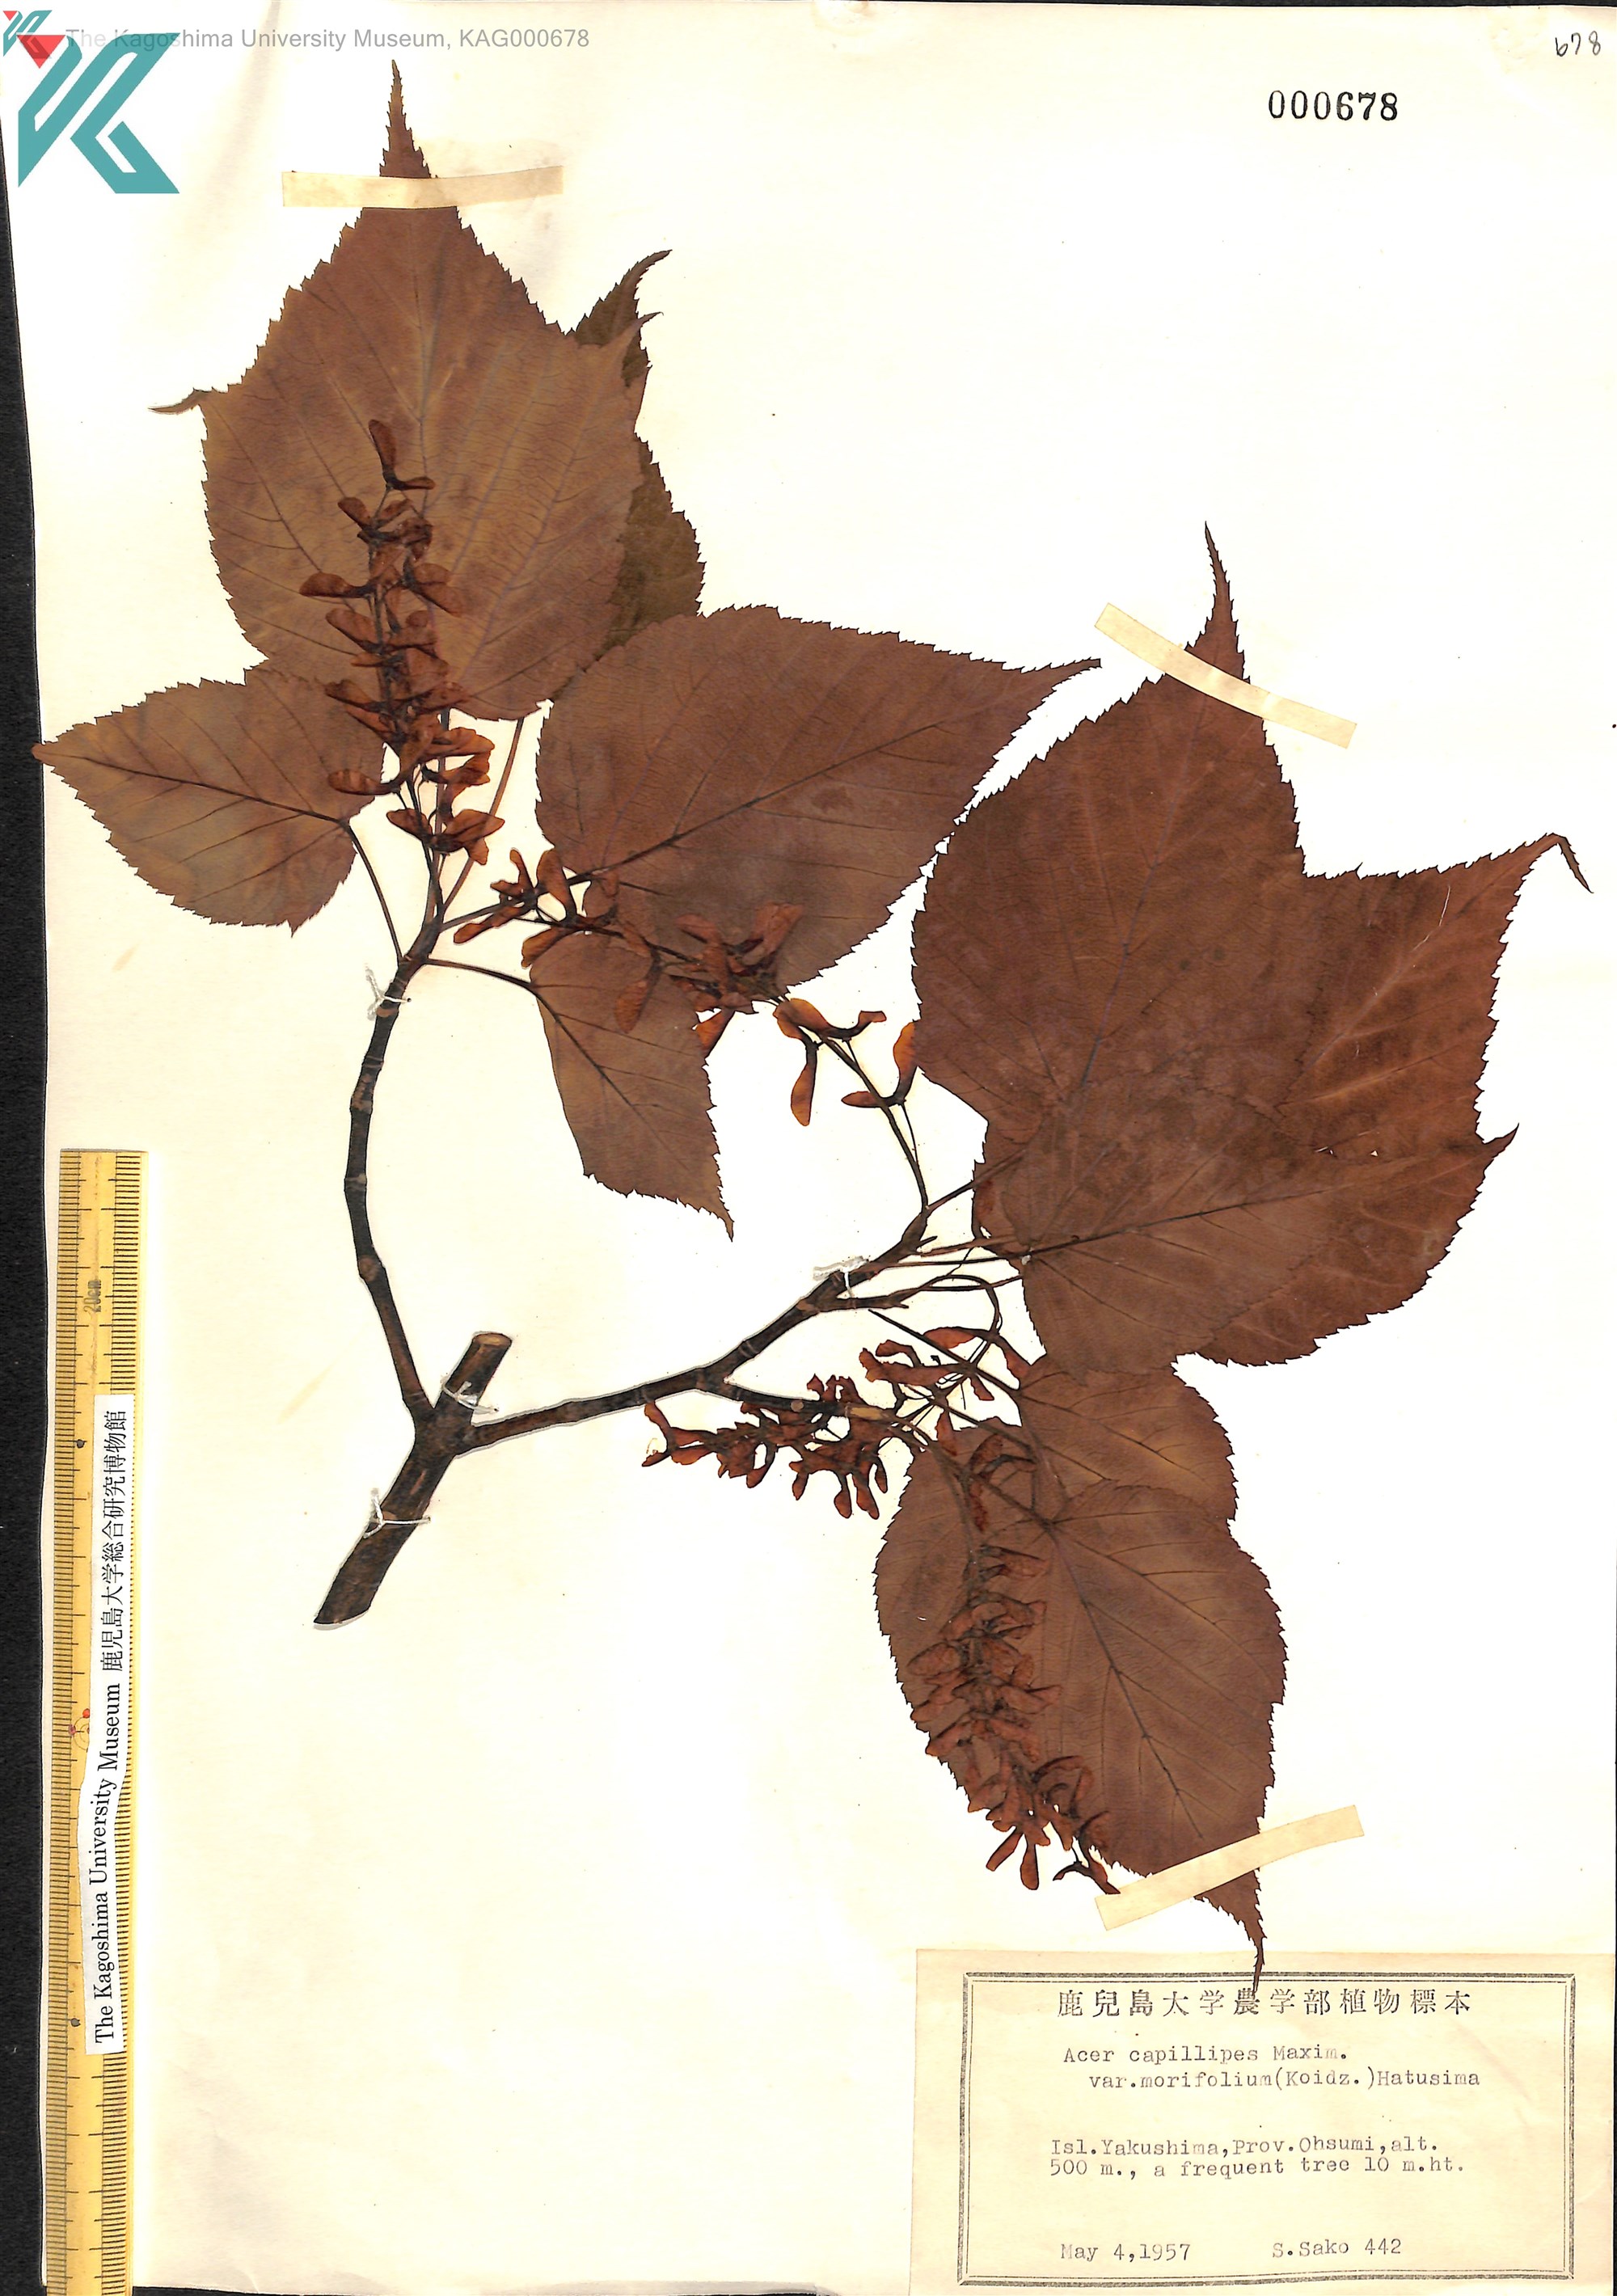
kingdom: Plantae
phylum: Tracheophyta
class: Magnoliopsida
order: Sapindales
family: Sapindaceae
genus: Acer
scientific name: Acer morifolium
